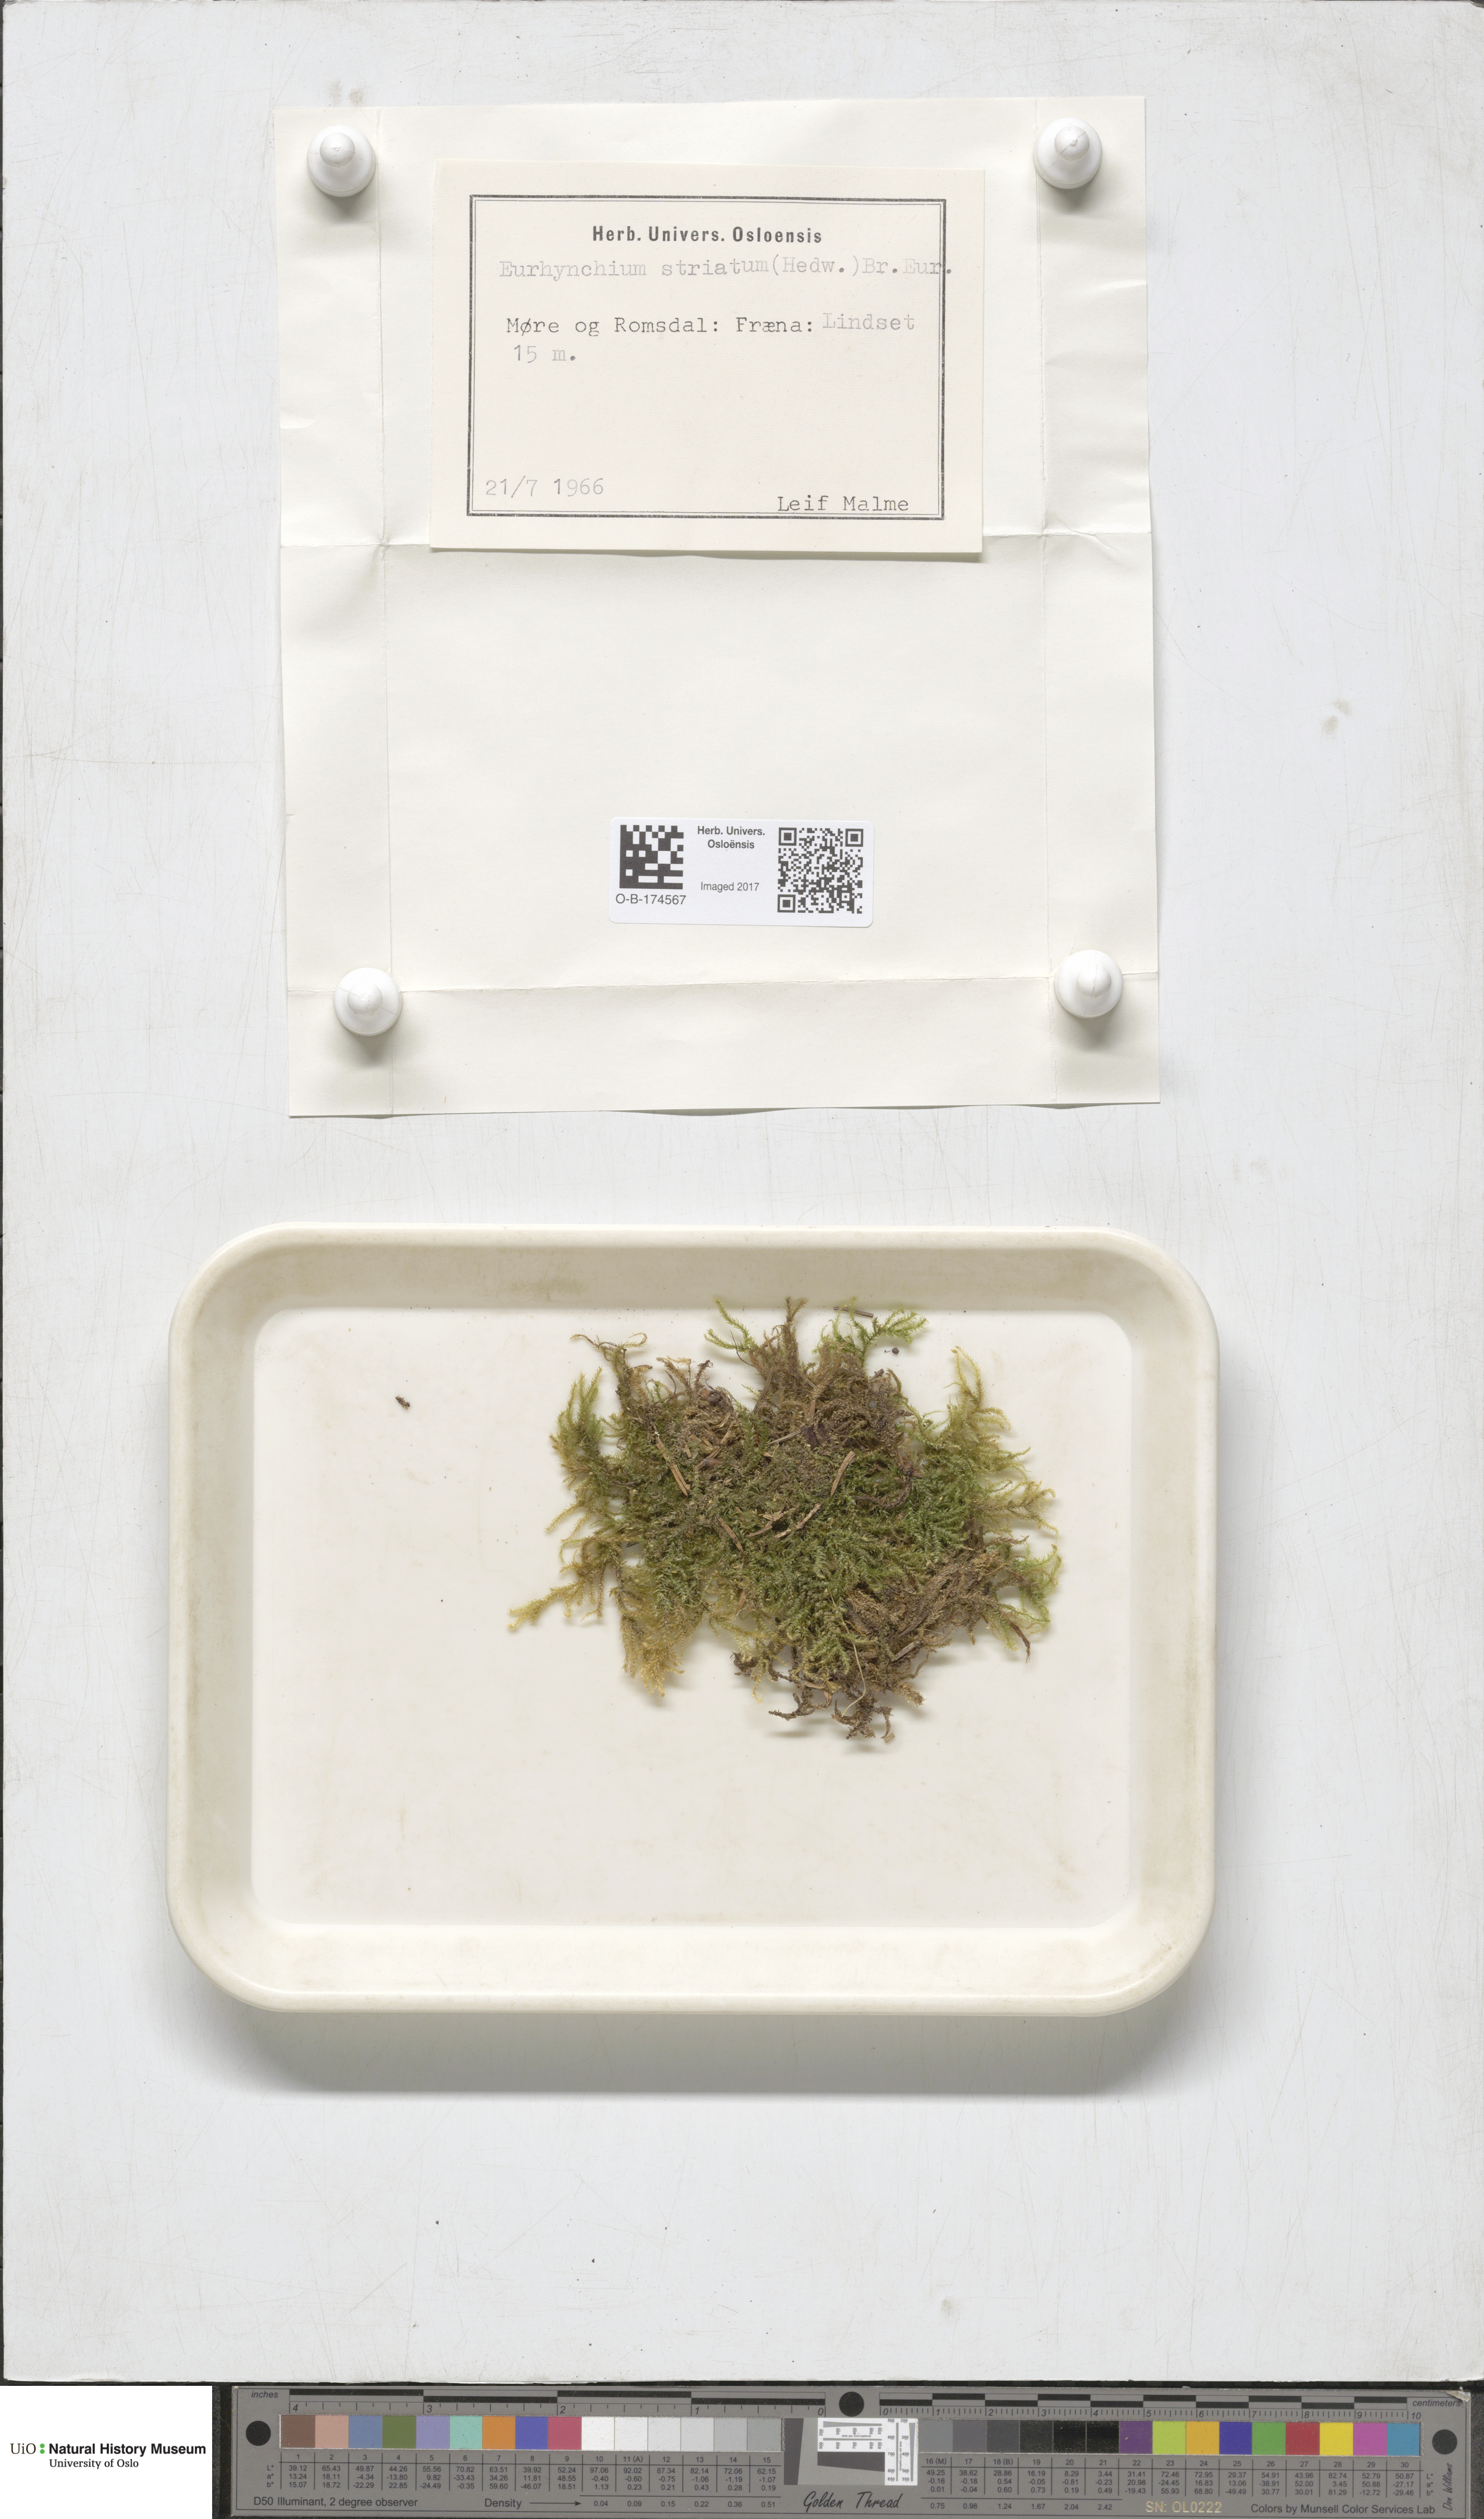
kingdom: Plantae
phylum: Bryophyta
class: Bryopsida
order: Hypnales
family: Brachytheciaceae
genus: Eurhynchium
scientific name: Eurhynchium striatum
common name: Common striated feather-moss
